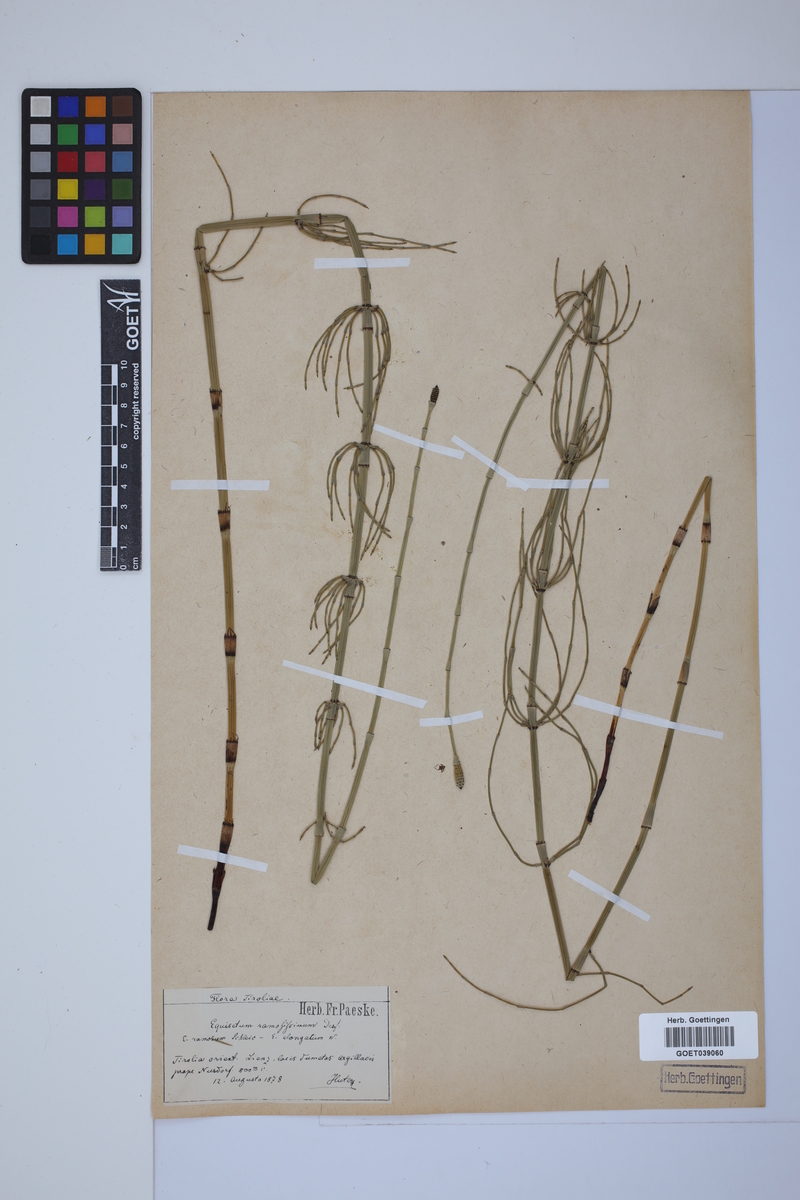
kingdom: Plantae
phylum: Tracheophyta
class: Polypodiopsida
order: Equisetales
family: Equisetaceae
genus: Equisetum
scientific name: Equisetum giganteum
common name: Giant horsetail
